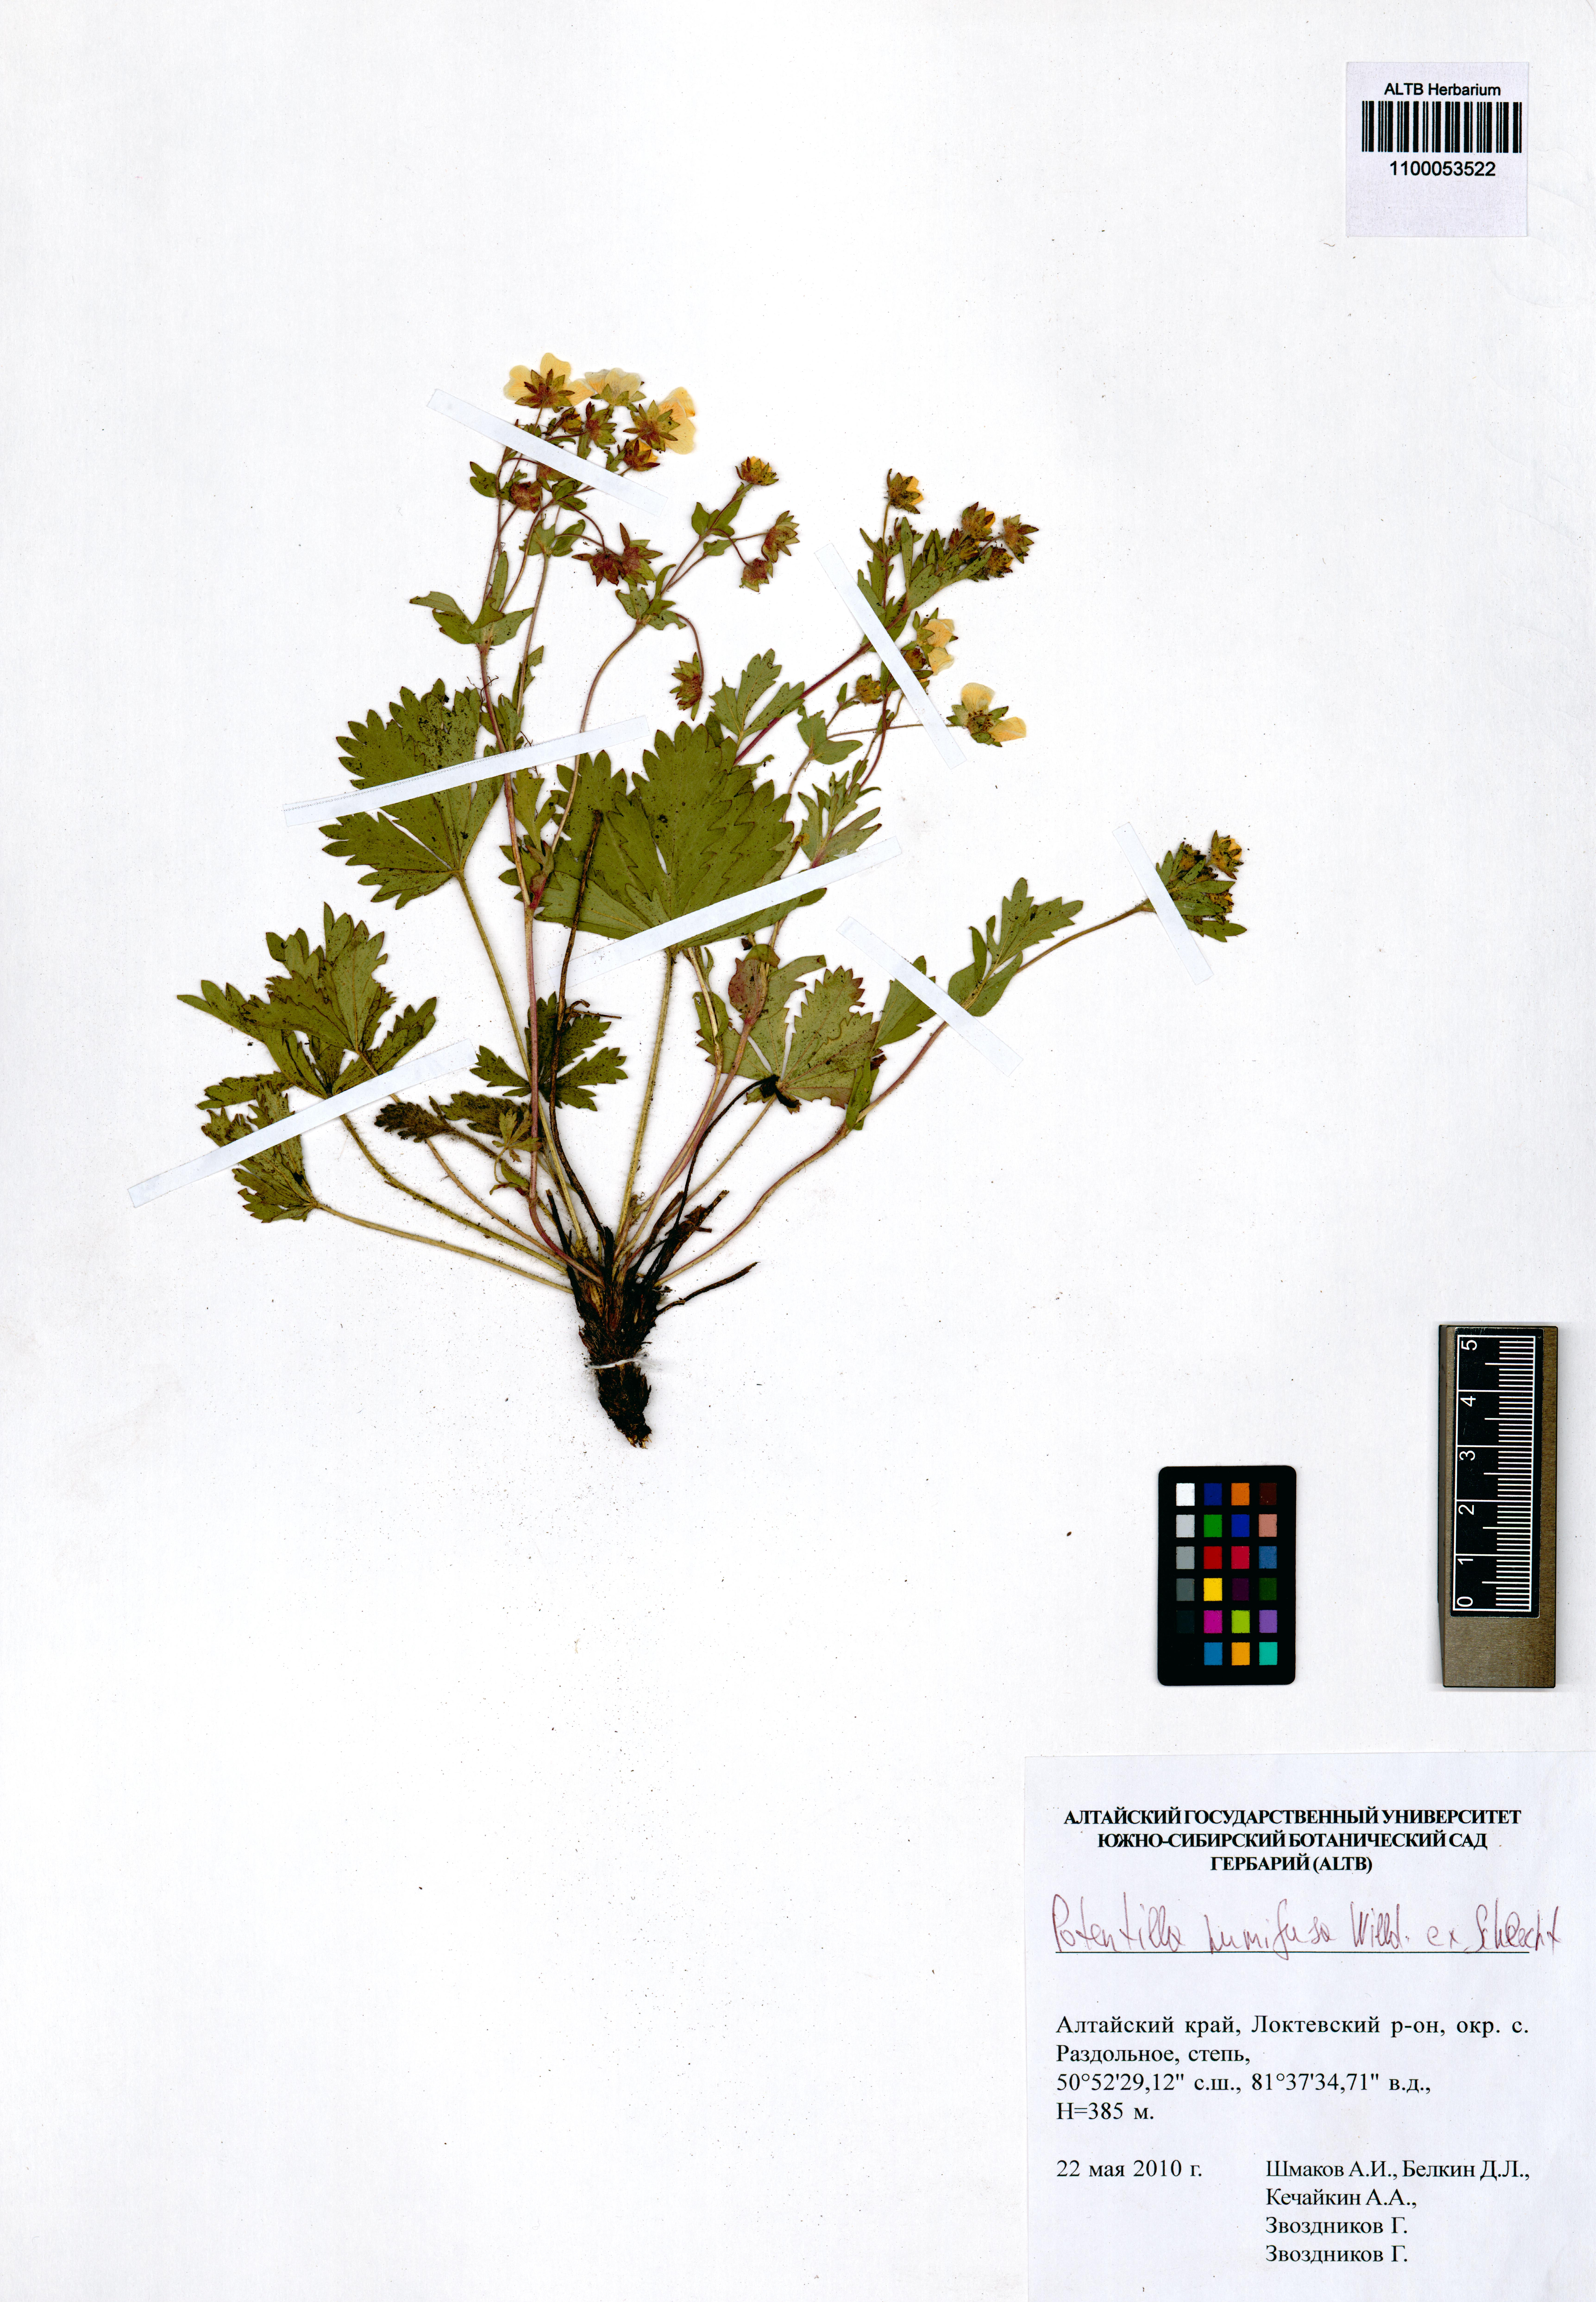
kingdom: Plantae
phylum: Tracheophyta
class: Magnoliopsida
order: Rosales
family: Rosaceae
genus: Potentilla
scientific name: Potentilla humifusa
